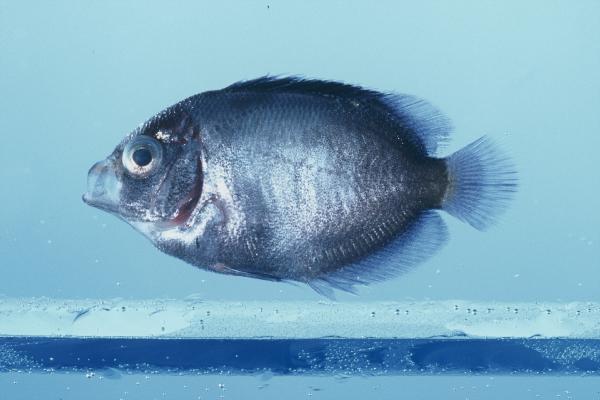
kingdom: Animalia
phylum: Chordata
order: Perciformes
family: Pomacanthidae
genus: Centropyge
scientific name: Centropyge
